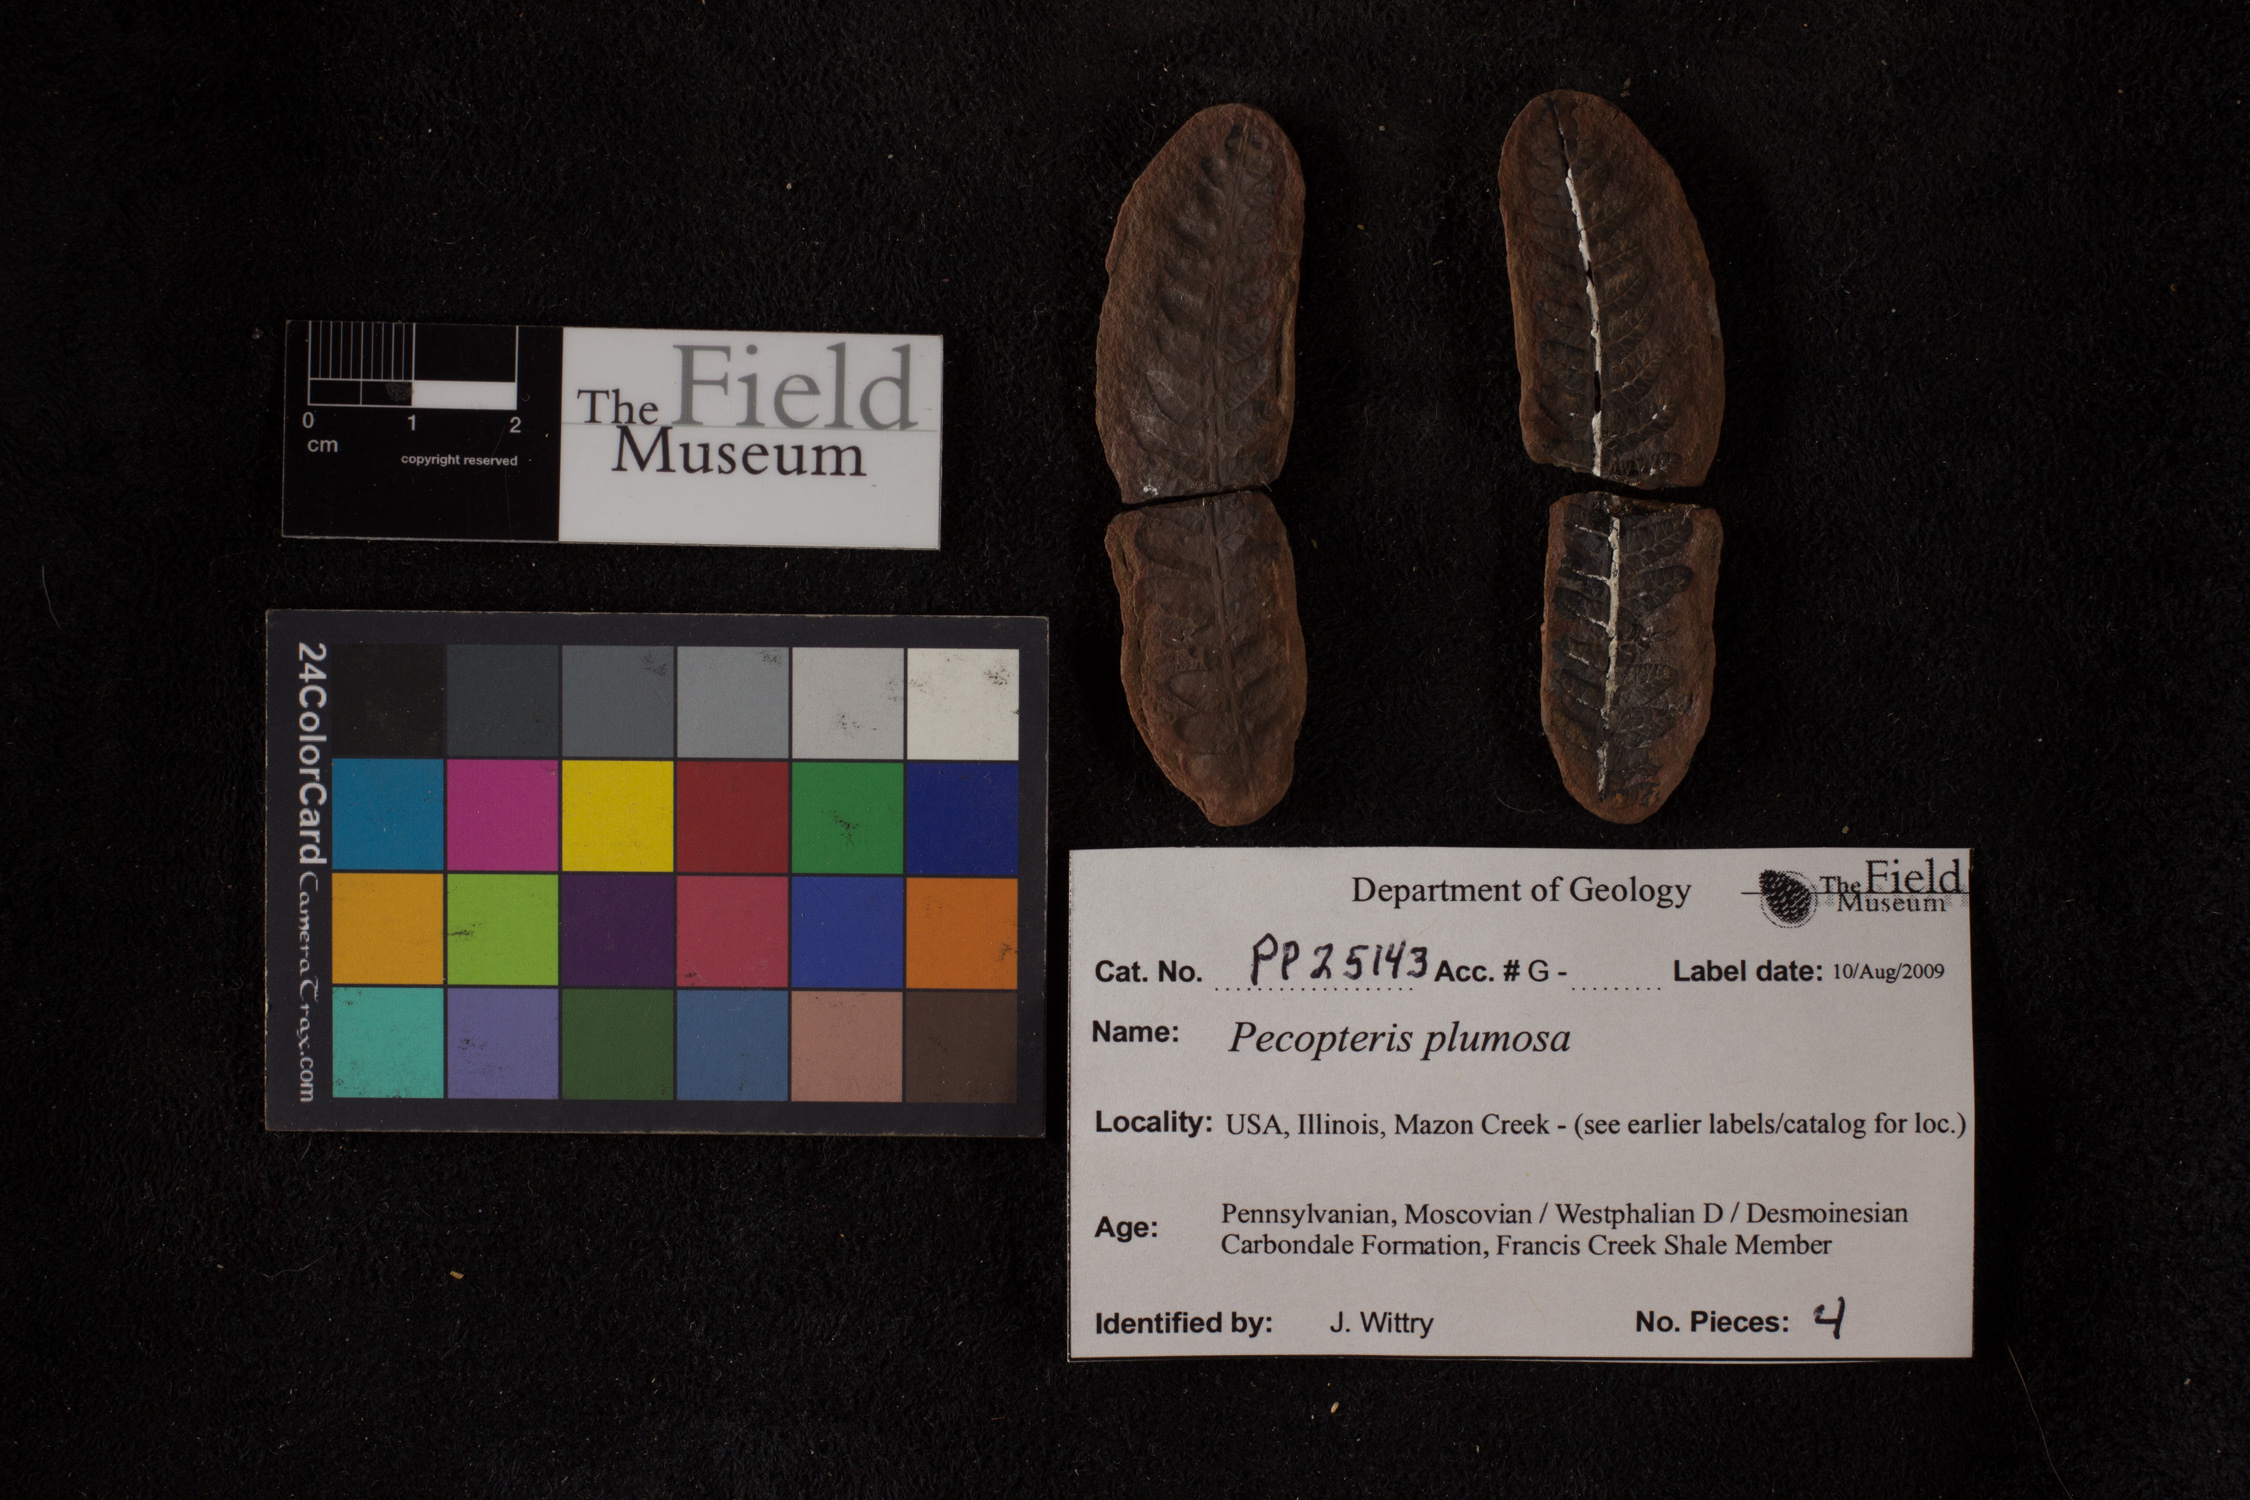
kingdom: Plantae
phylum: Tracheophyta
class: Polypodiopsida
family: Tedeleaceae
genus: Senftenbergia
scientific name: Senftenbergia
